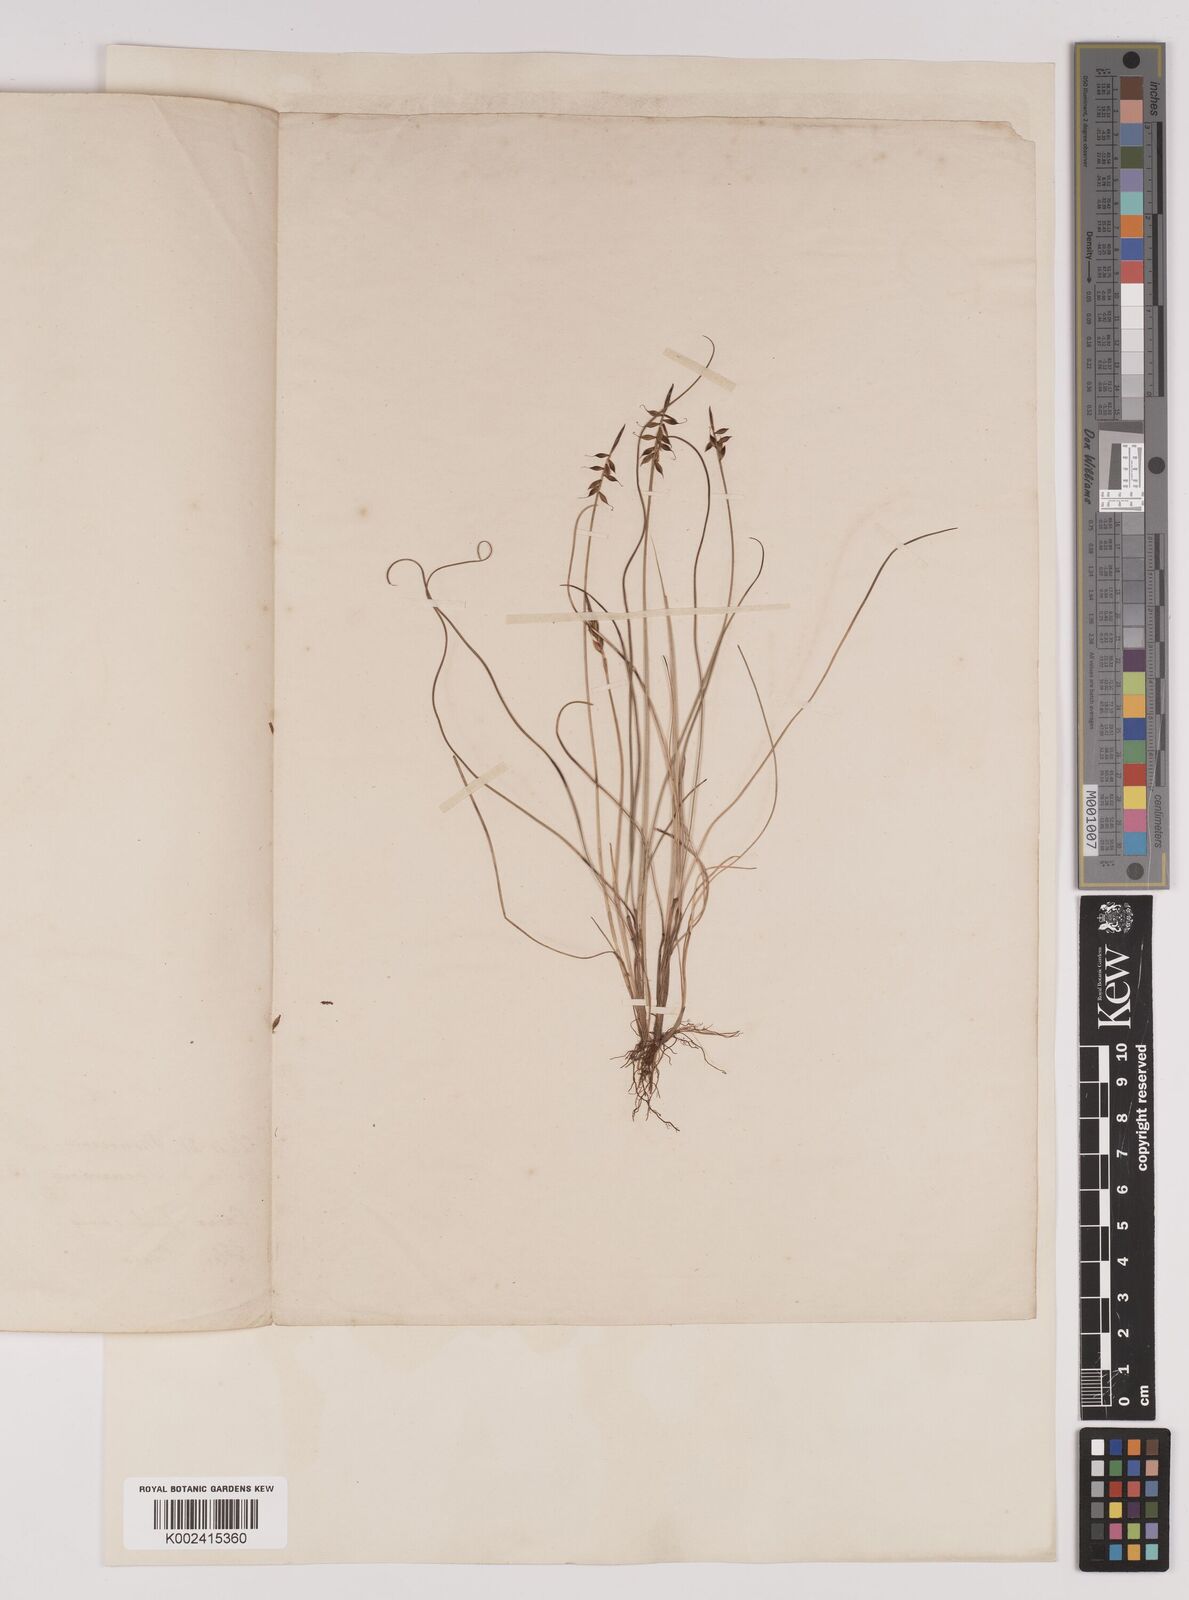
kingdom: Plantae
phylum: Tracheophyta
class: Liliopsida
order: Poales
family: Cyperaceae
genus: Carex
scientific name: Carex pulicaris
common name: Flea sedge
